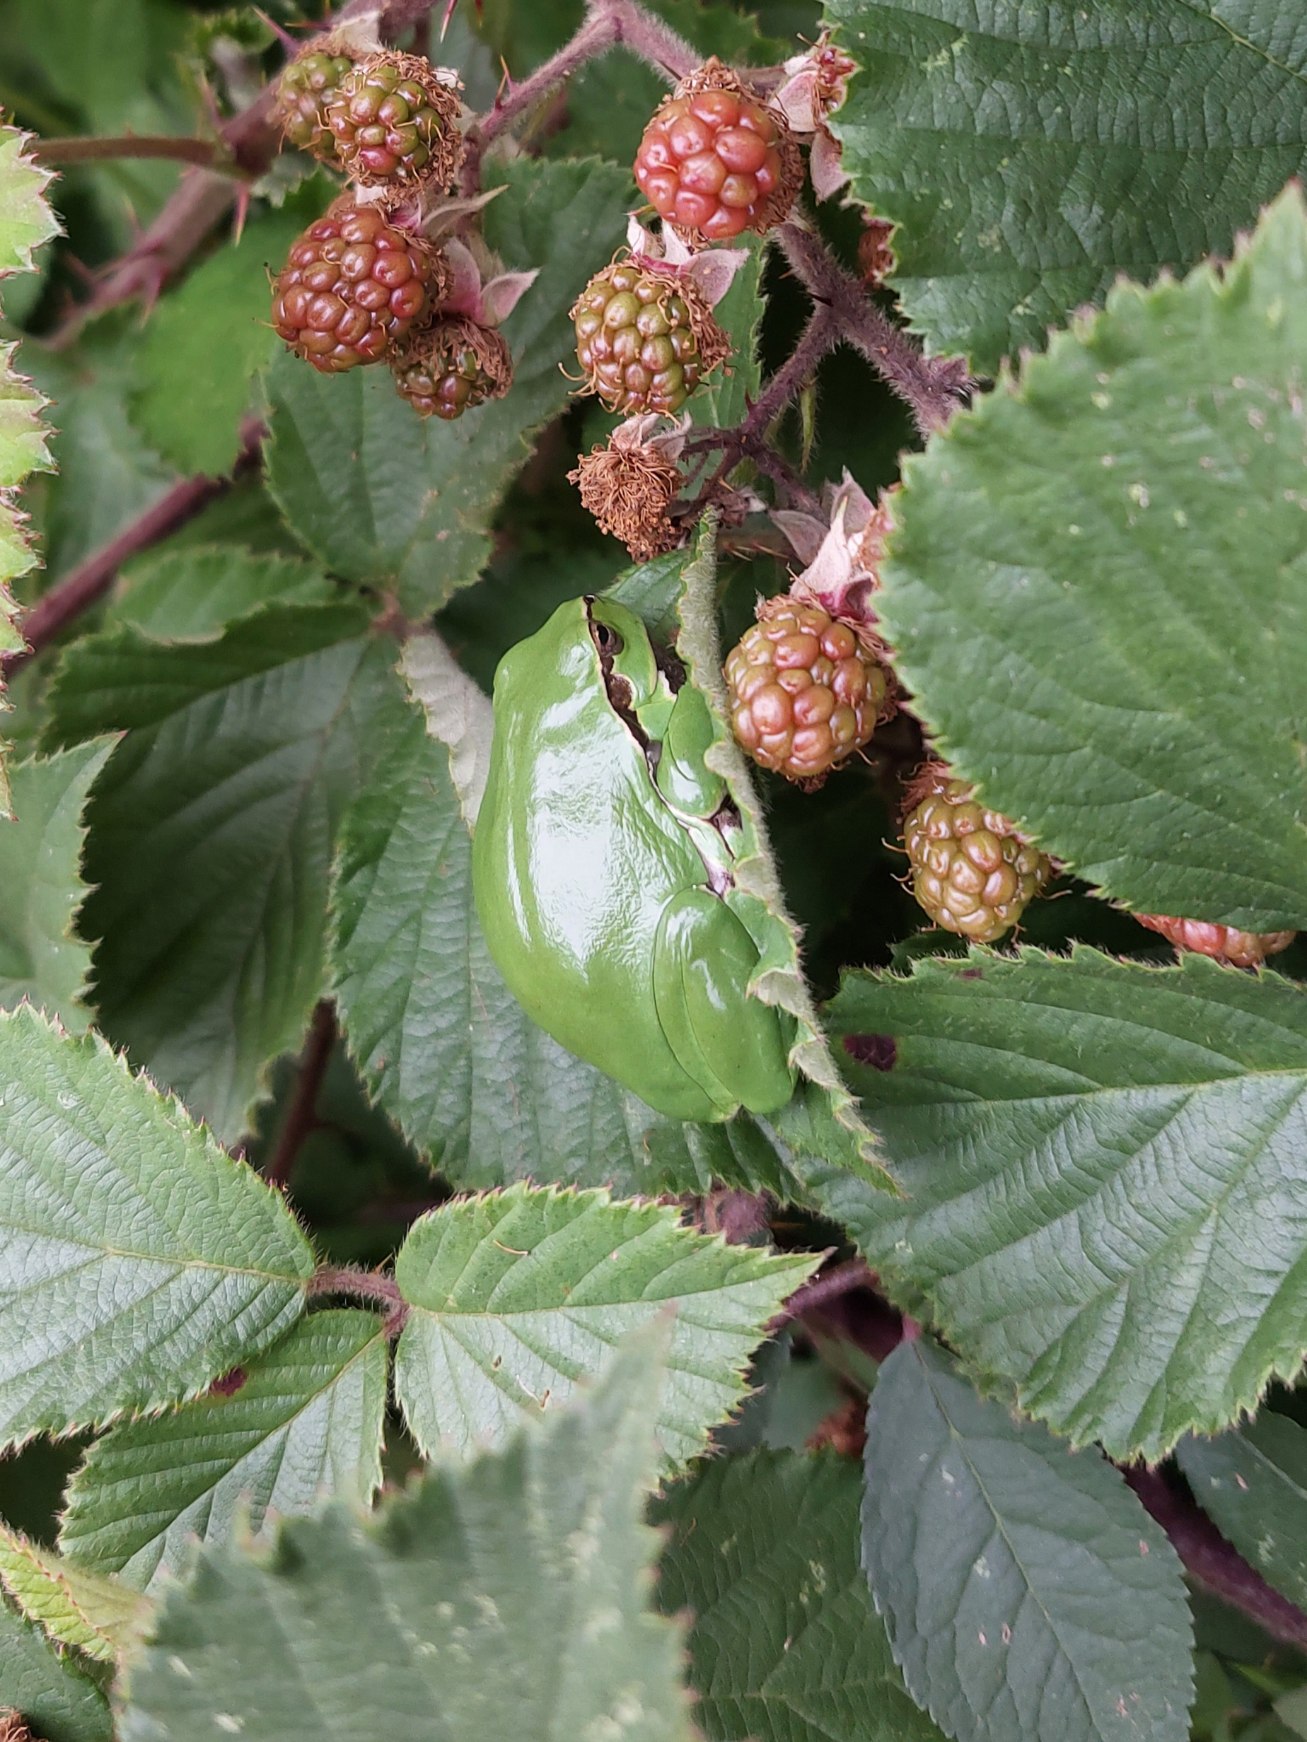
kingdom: Animalia
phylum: Chordata
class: Amphibia
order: Anura
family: Hylidae
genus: Hyla
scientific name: Hyla arborea
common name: Løvfrø
